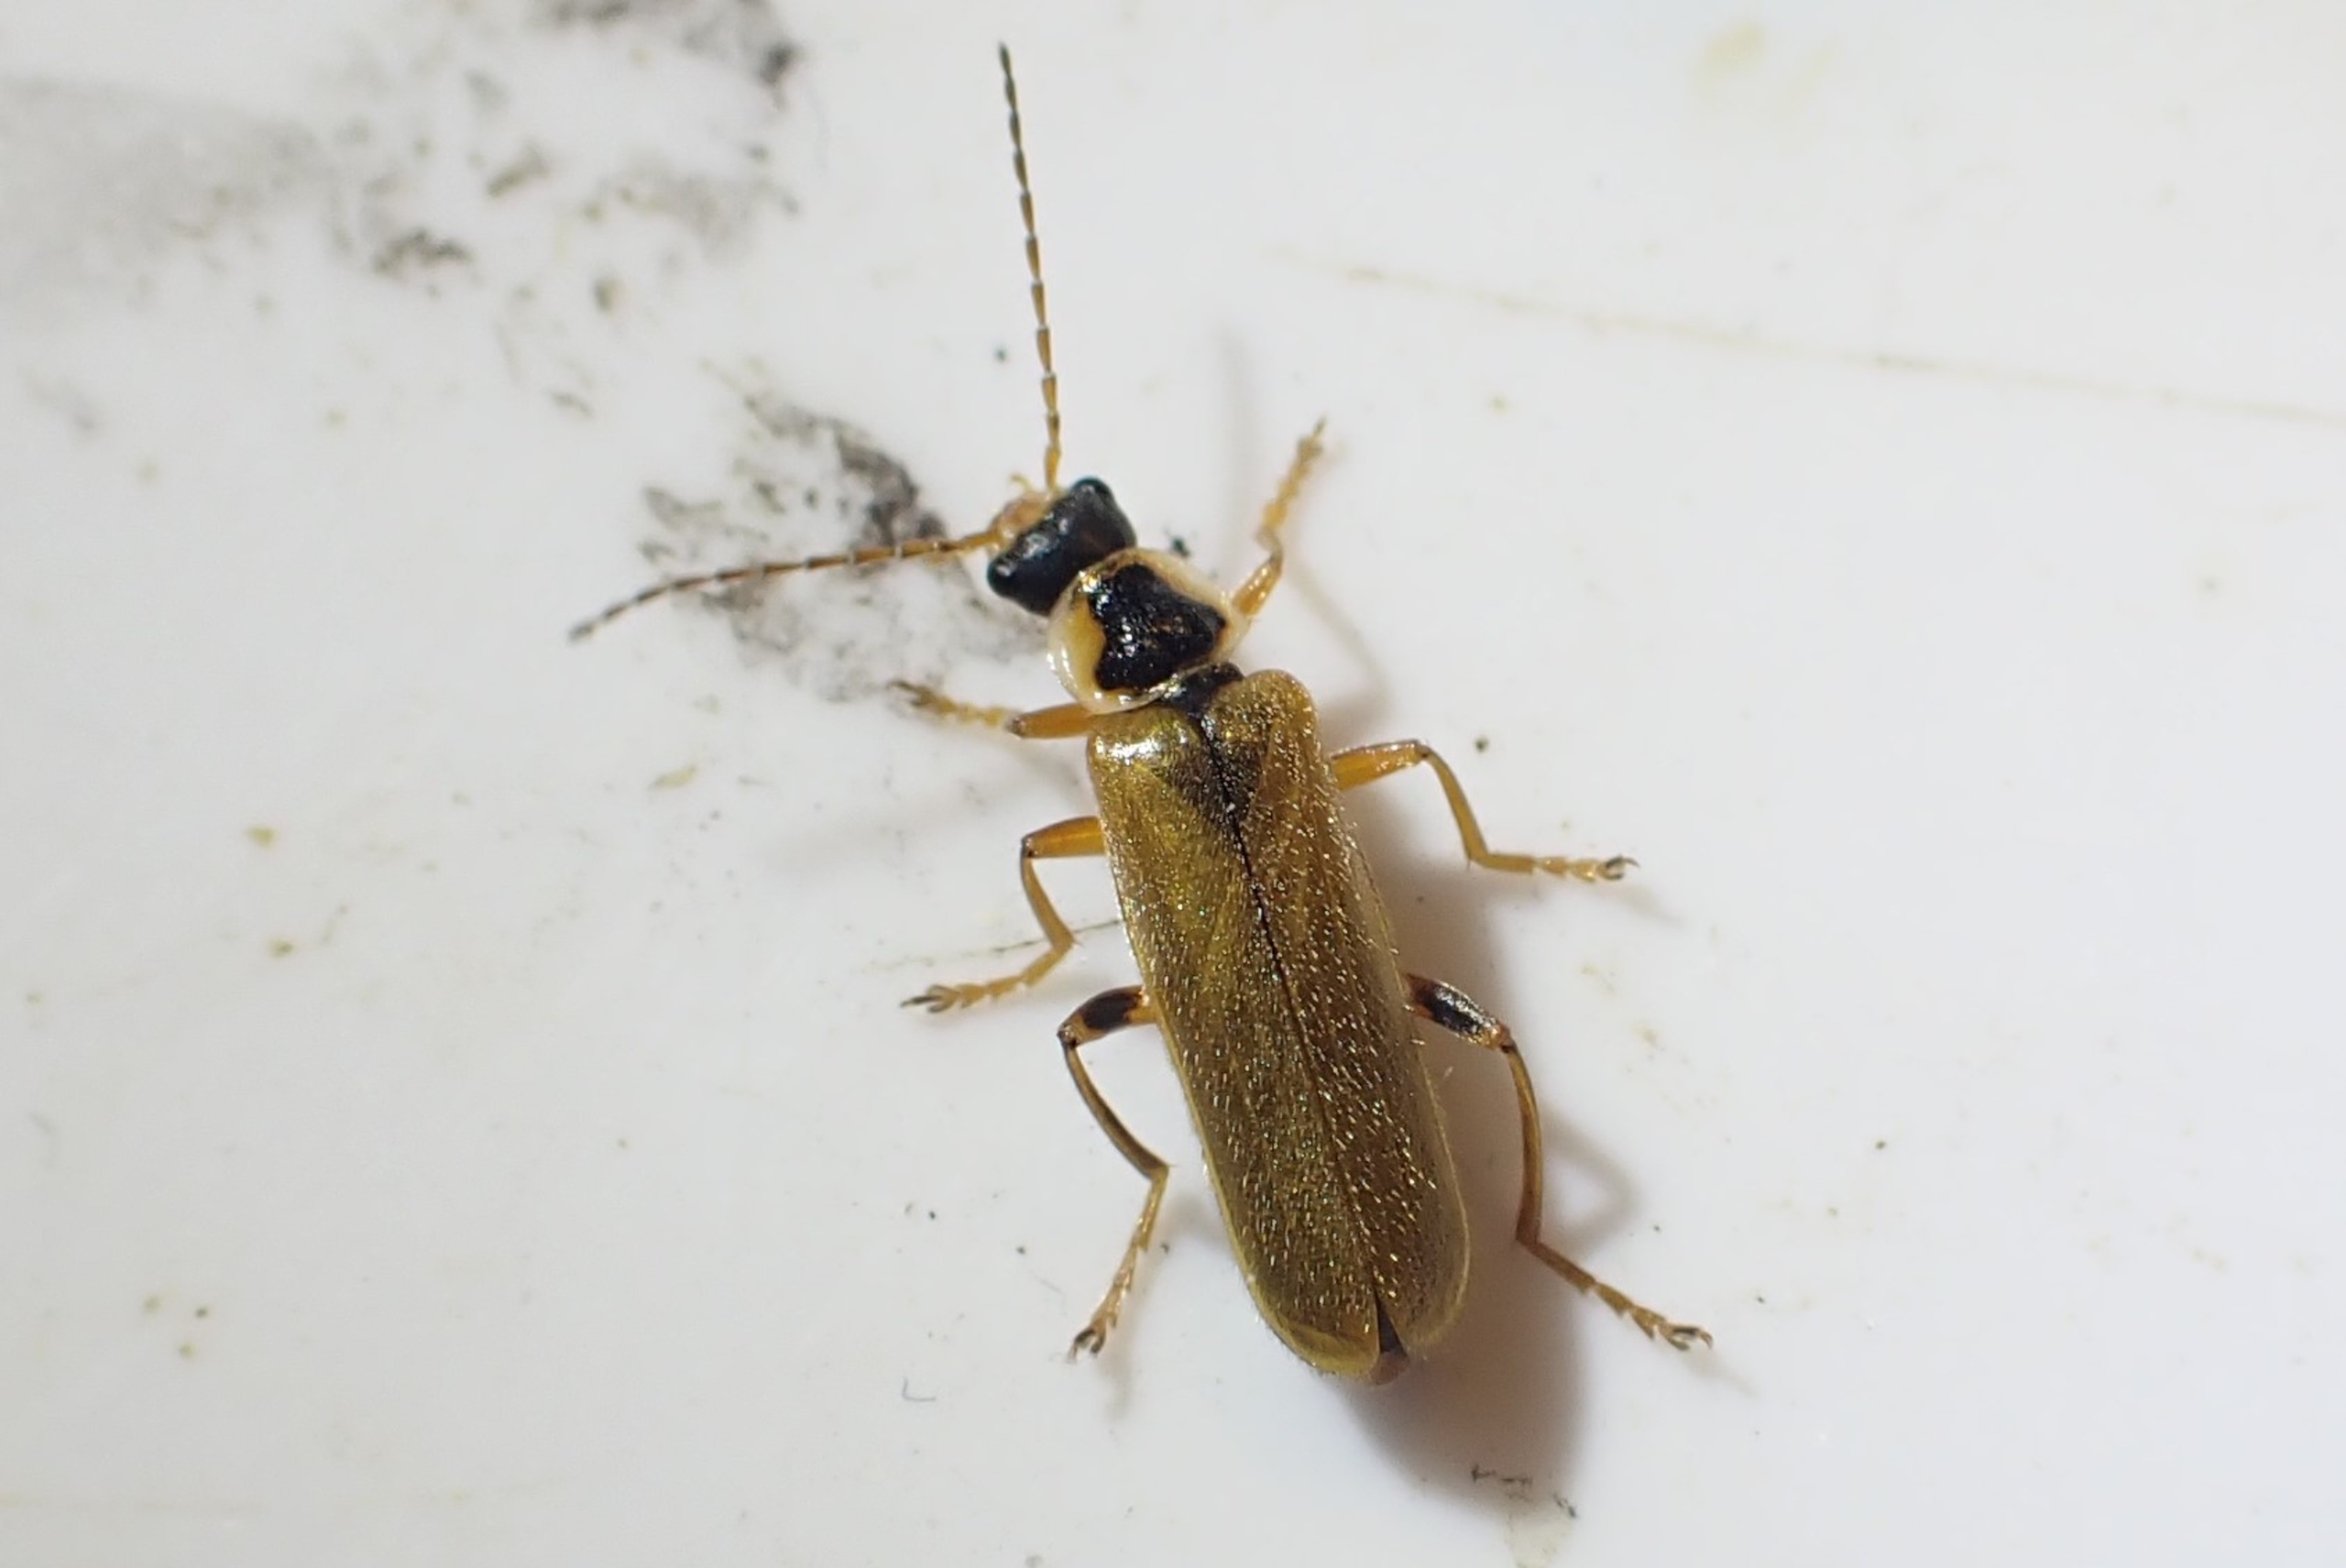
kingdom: Animalia
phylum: Arthropoda
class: Insecta
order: Coleoptera
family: Cantharidae
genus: Cantharis
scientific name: Cantharis decipiens
